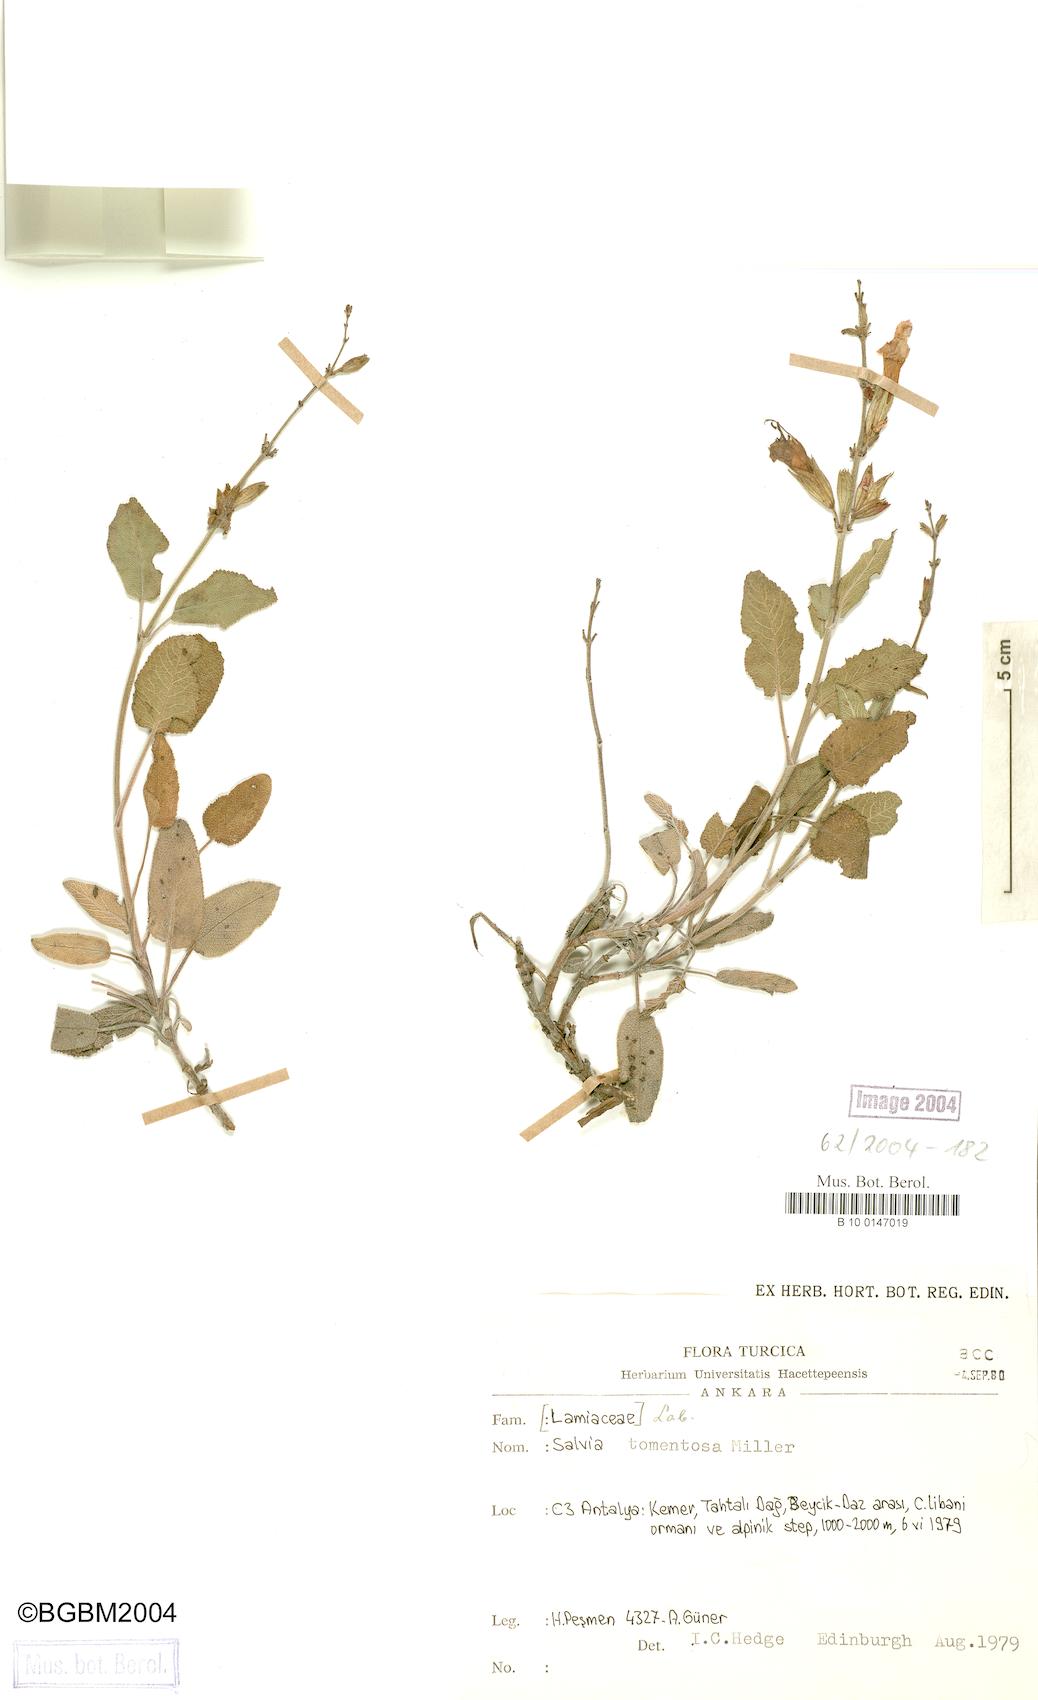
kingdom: Plantae
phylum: Tracheophyta
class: Magnoliopsida
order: Lamiales
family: Lamiaceae
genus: Salvia
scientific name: Salvia tomentosa
